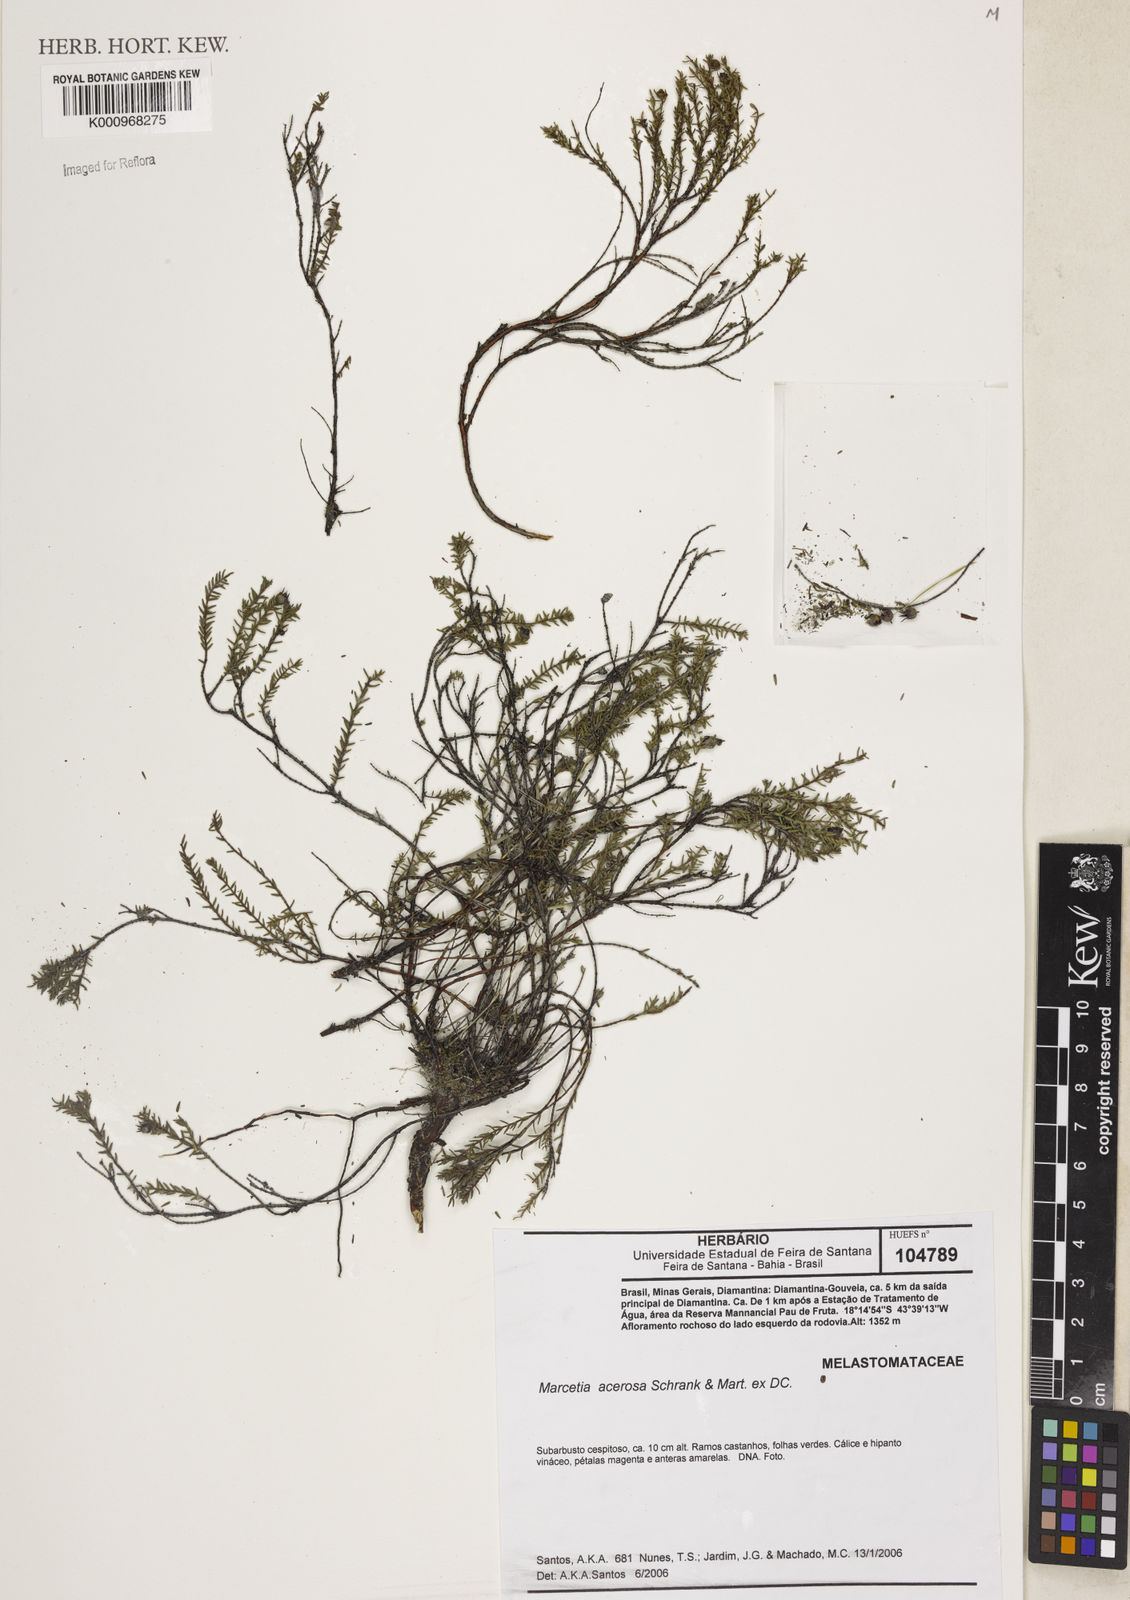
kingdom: Plantae
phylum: Tracheophyta
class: Magnoliopsida
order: Myrtales
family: Melastomataceae
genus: Marcetia
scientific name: Marcetia acerosa
